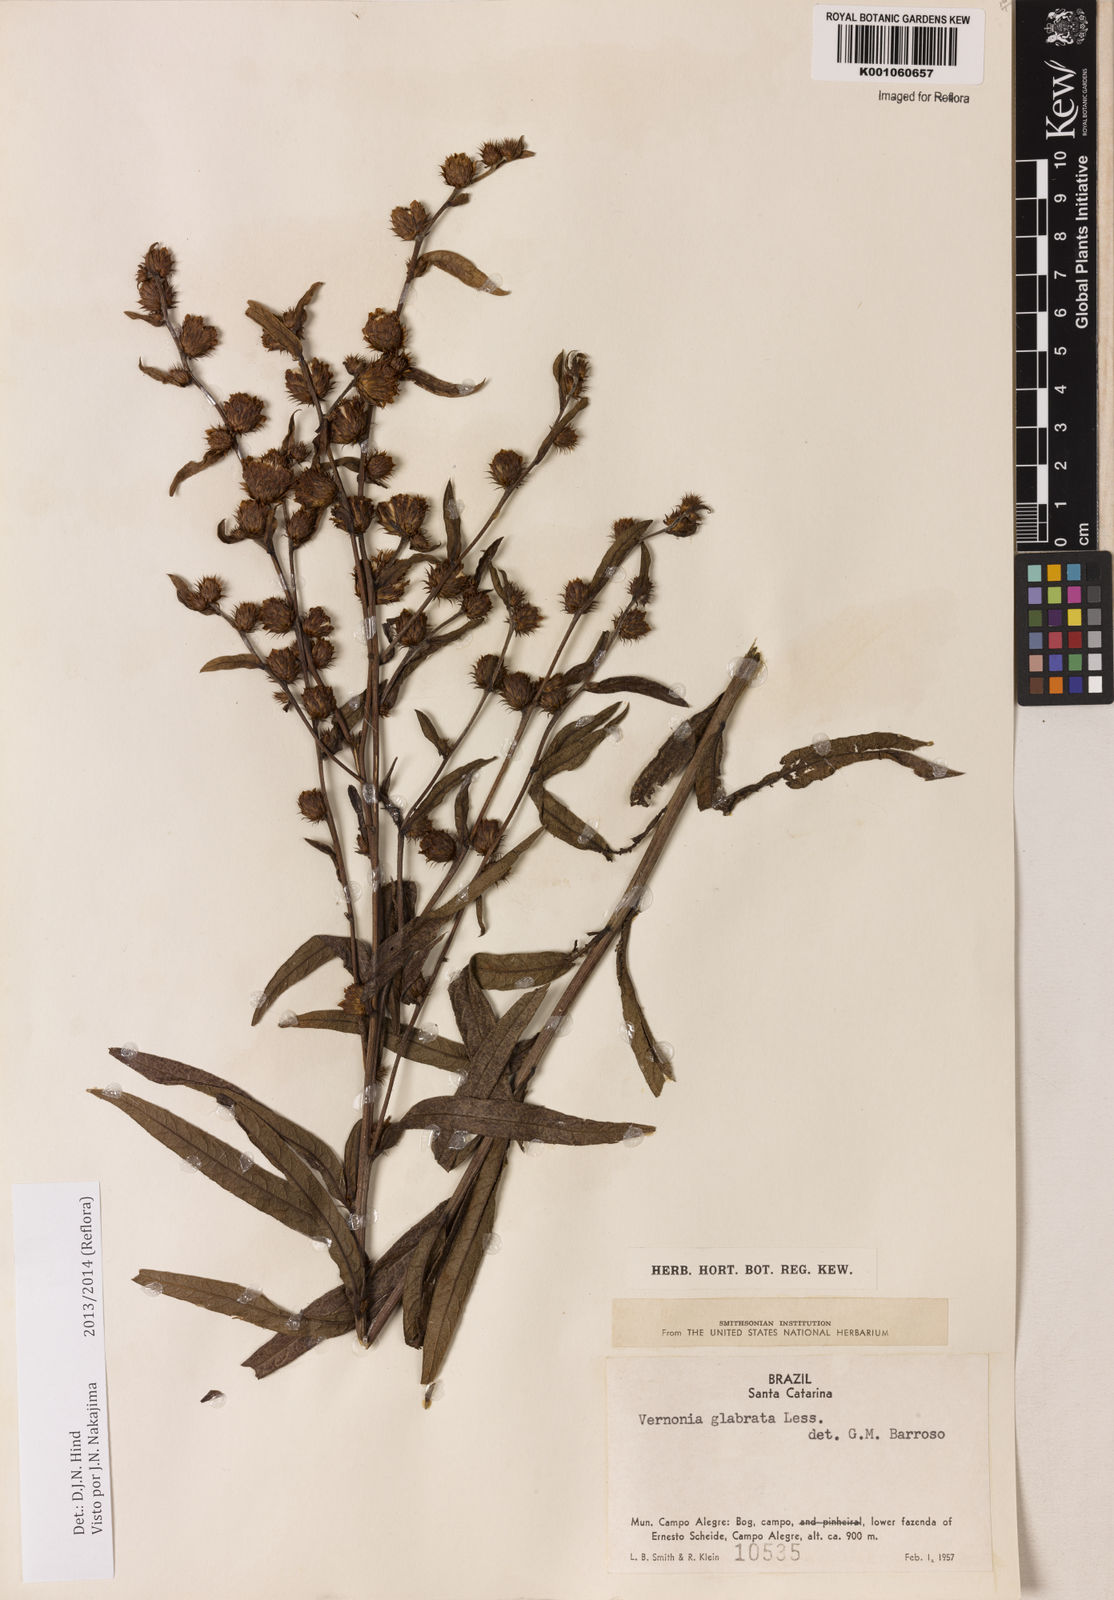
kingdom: Plantae
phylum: Tracheophyta
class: Magnoliopsida
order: Asterales
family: Asteraceae
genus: Lessingianthus
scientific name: Lessingianthus glabratus
